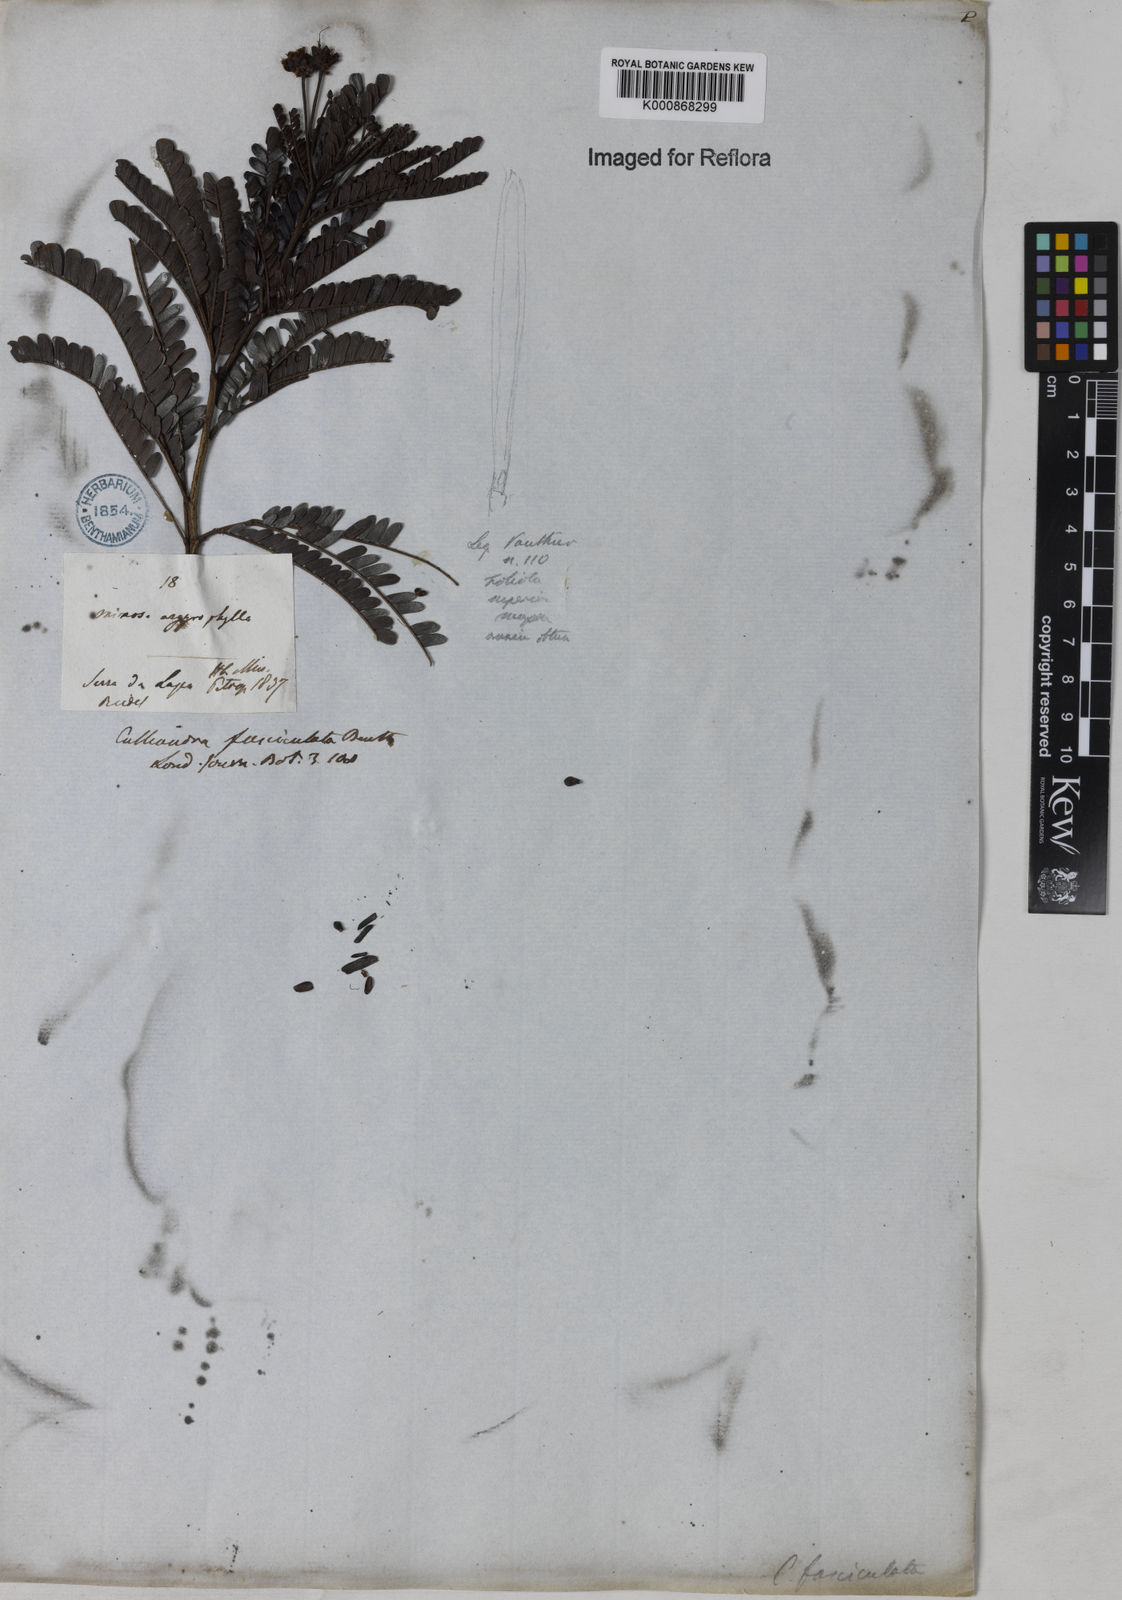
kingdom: Plantae
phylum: Tracheophyta
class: Magnoliopsida
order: Fabales
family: Fabaceae
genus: Calliandra
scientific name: Calliandra fasciculata
